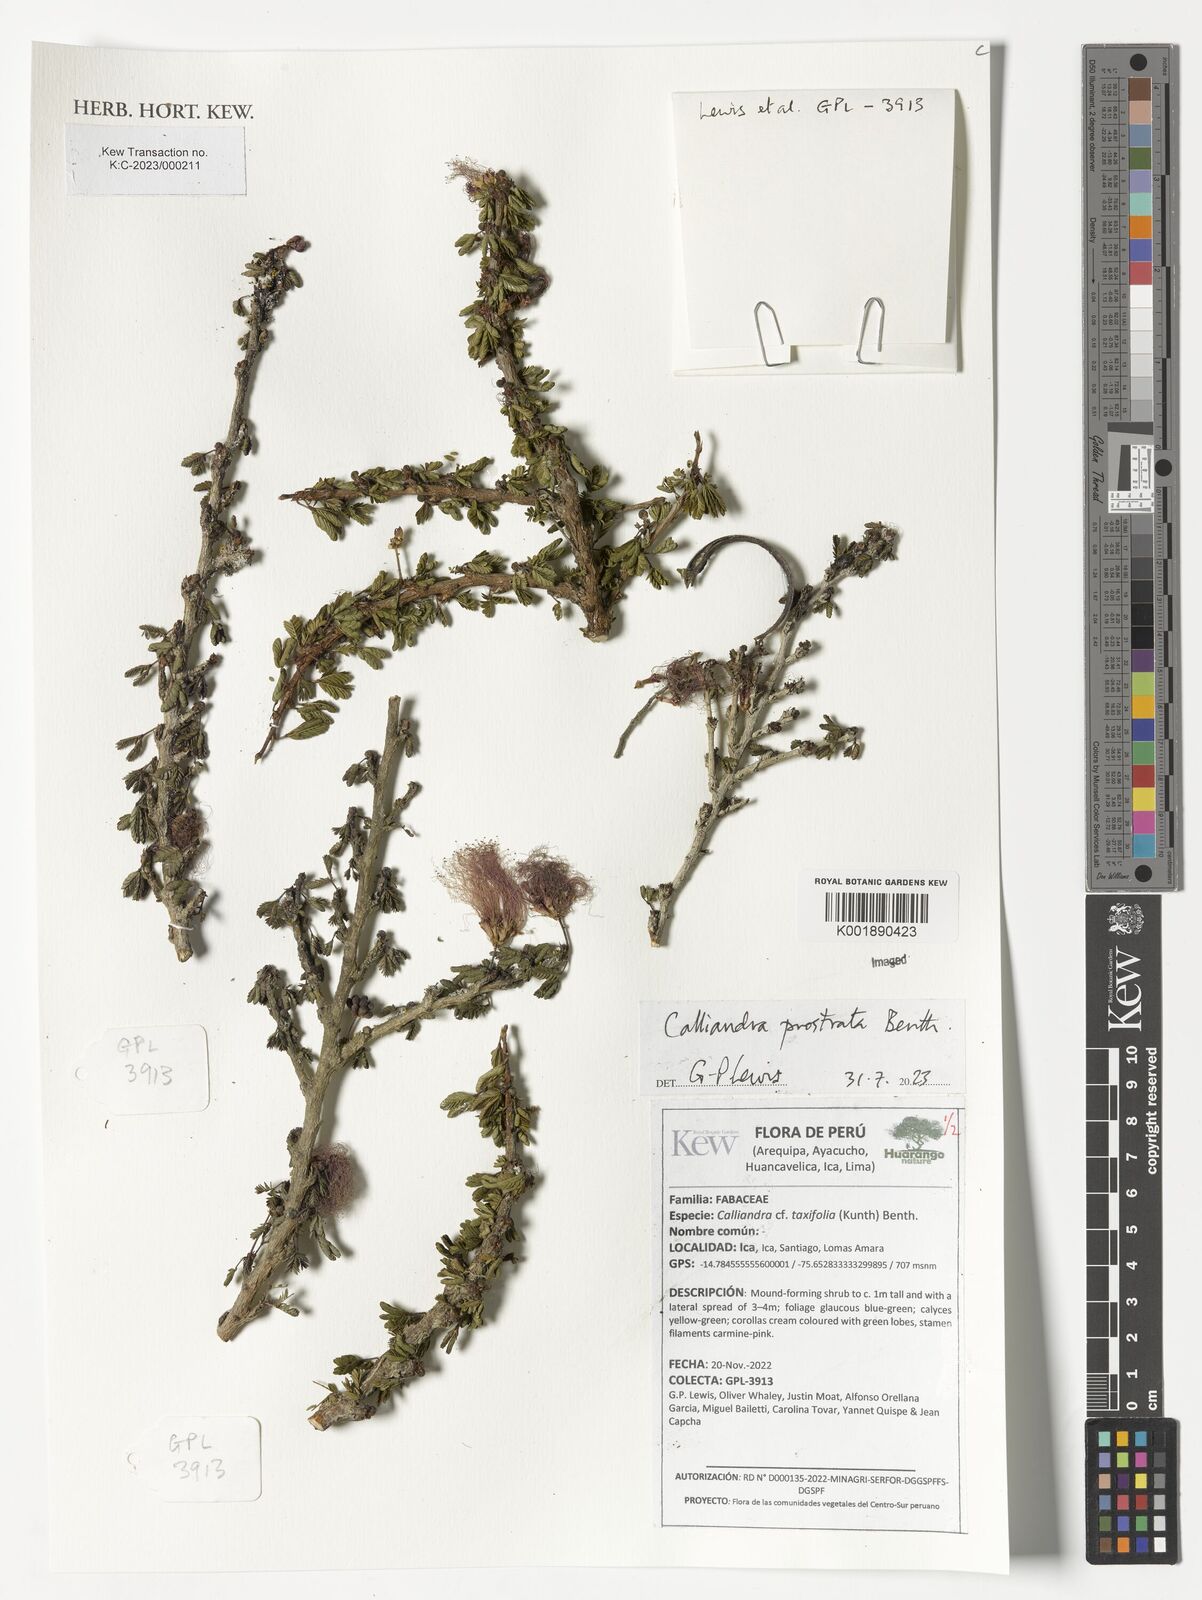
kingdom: Plantae
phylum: Tracheophyta
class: Magnoliopsida
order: Fabales
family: Fabaceae
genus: Calliandra
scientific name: Calliandra taxifolia
